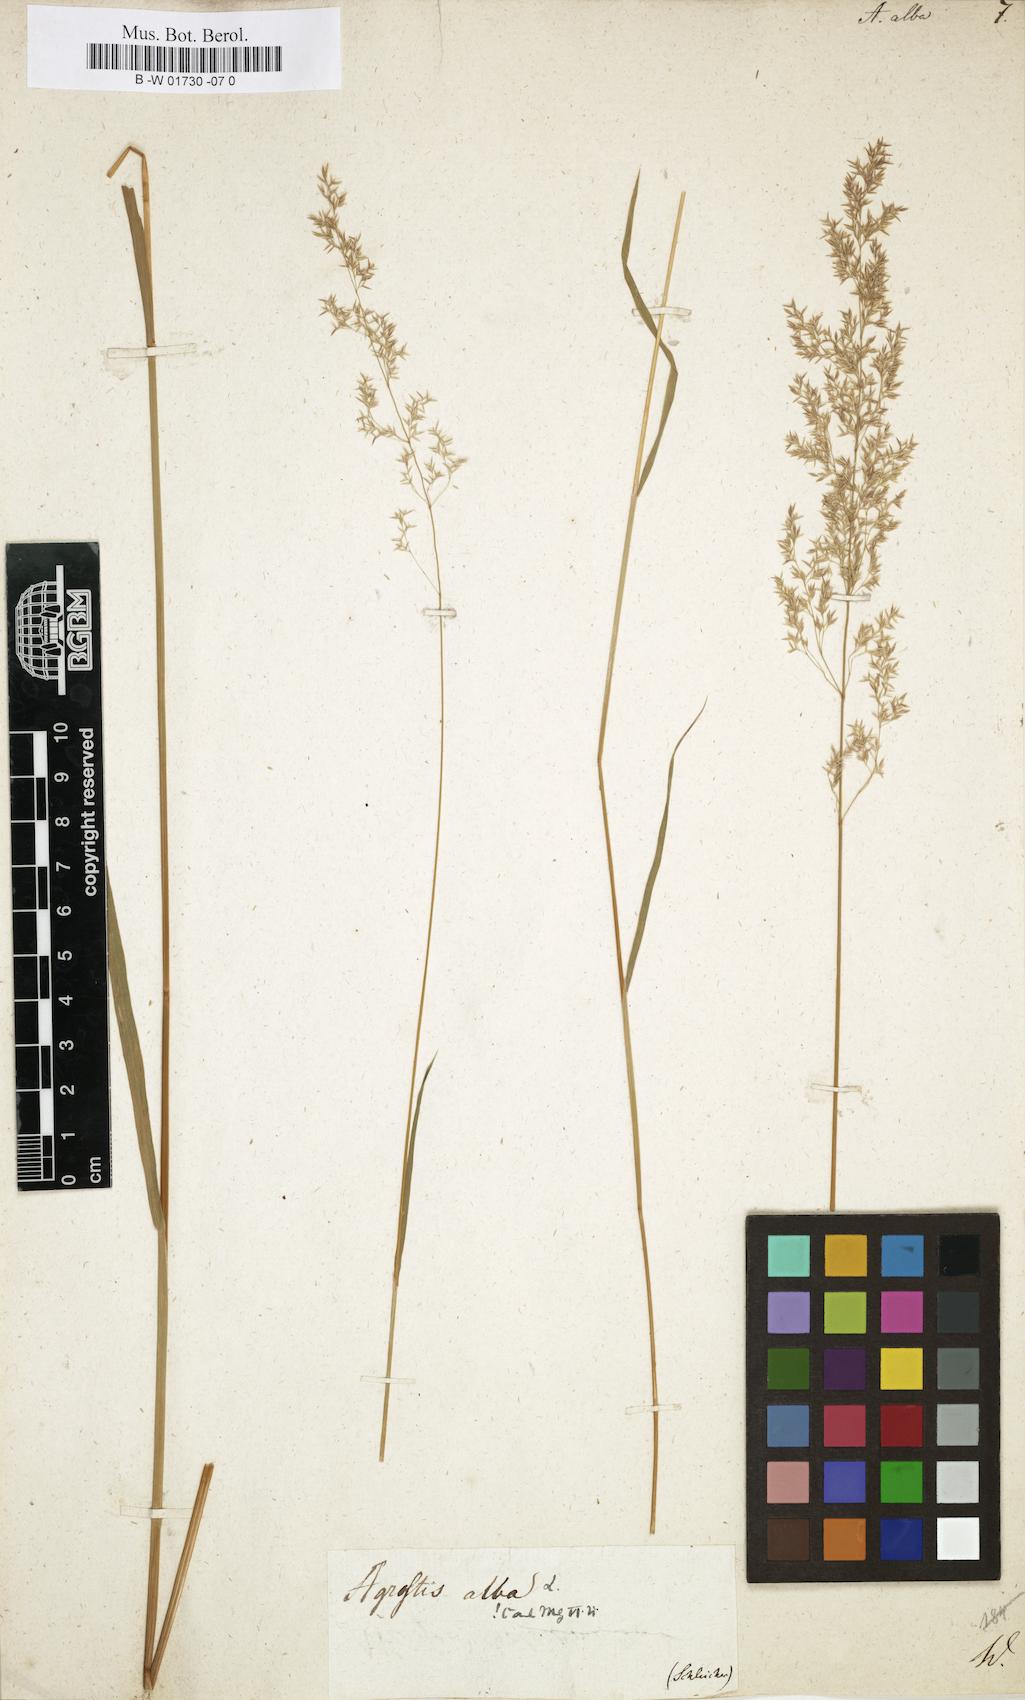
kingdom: Plantae
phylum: Tracheophyta
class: Liliopsida
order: Poales
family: Poaceae
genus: Poa
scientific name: Poa nemoralis
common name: Wood bluegrass
